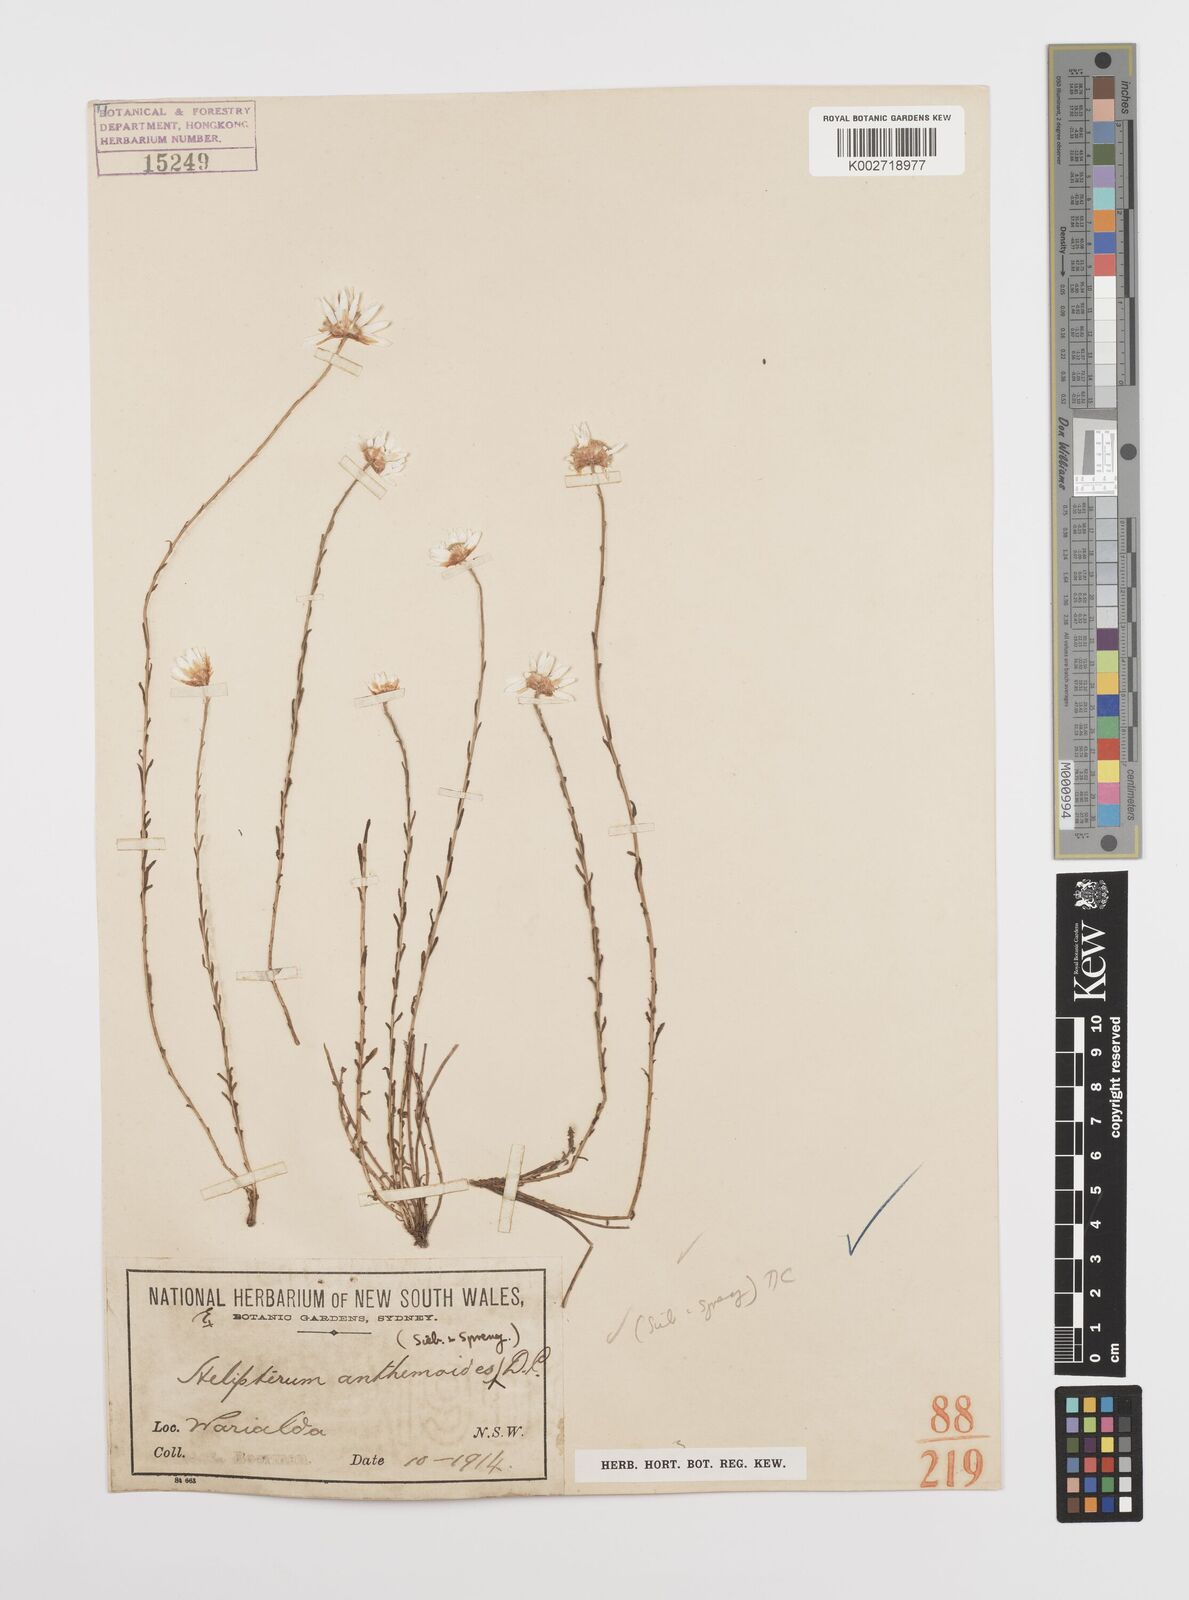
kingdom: Plantae
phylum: Tracheophyta
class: Magnoliopsida
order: Asterales
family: Asteraceae
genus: Rhodanthe
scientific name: Rhodanthe anthemoides
